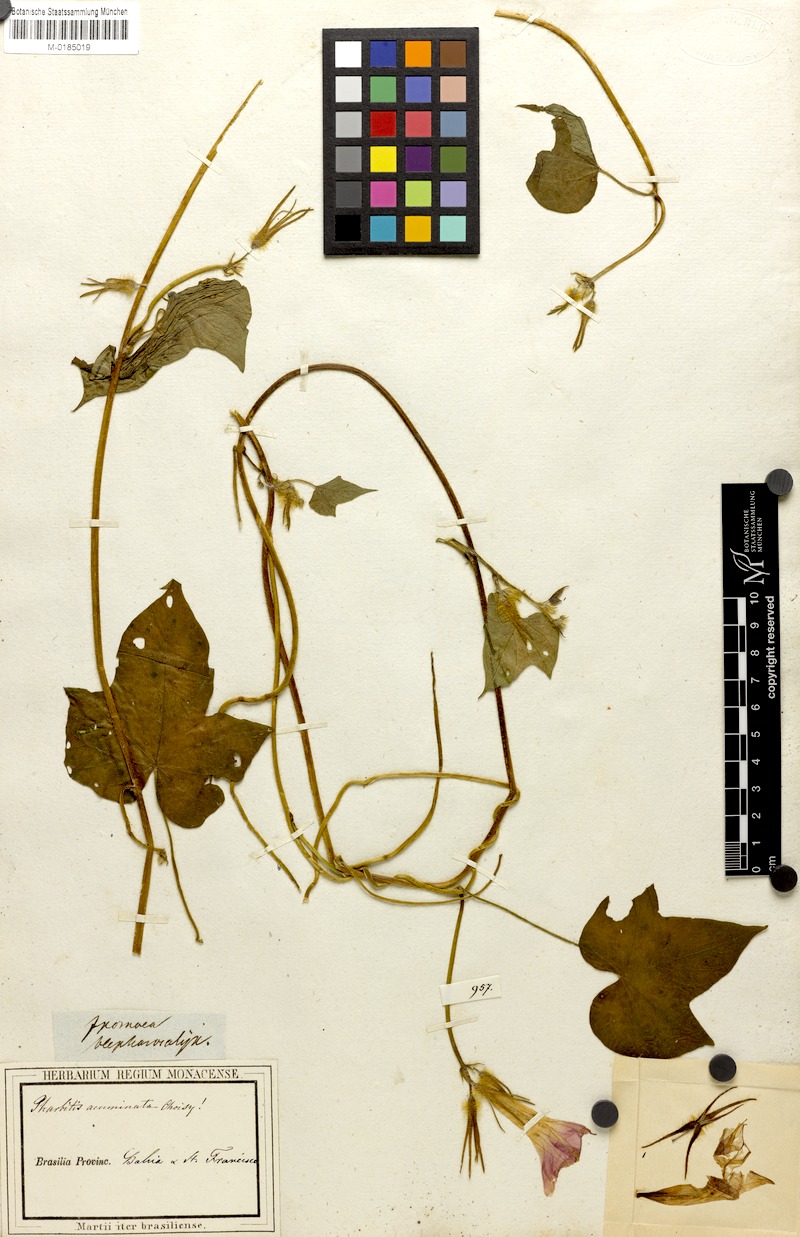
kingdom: Plantae
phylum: Tracheophyta
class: Magnoliopsida
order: Solanales
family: Convolvulaceae
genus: Ipomoea
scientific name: Ipomoea indica
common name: Blue dawnflower
